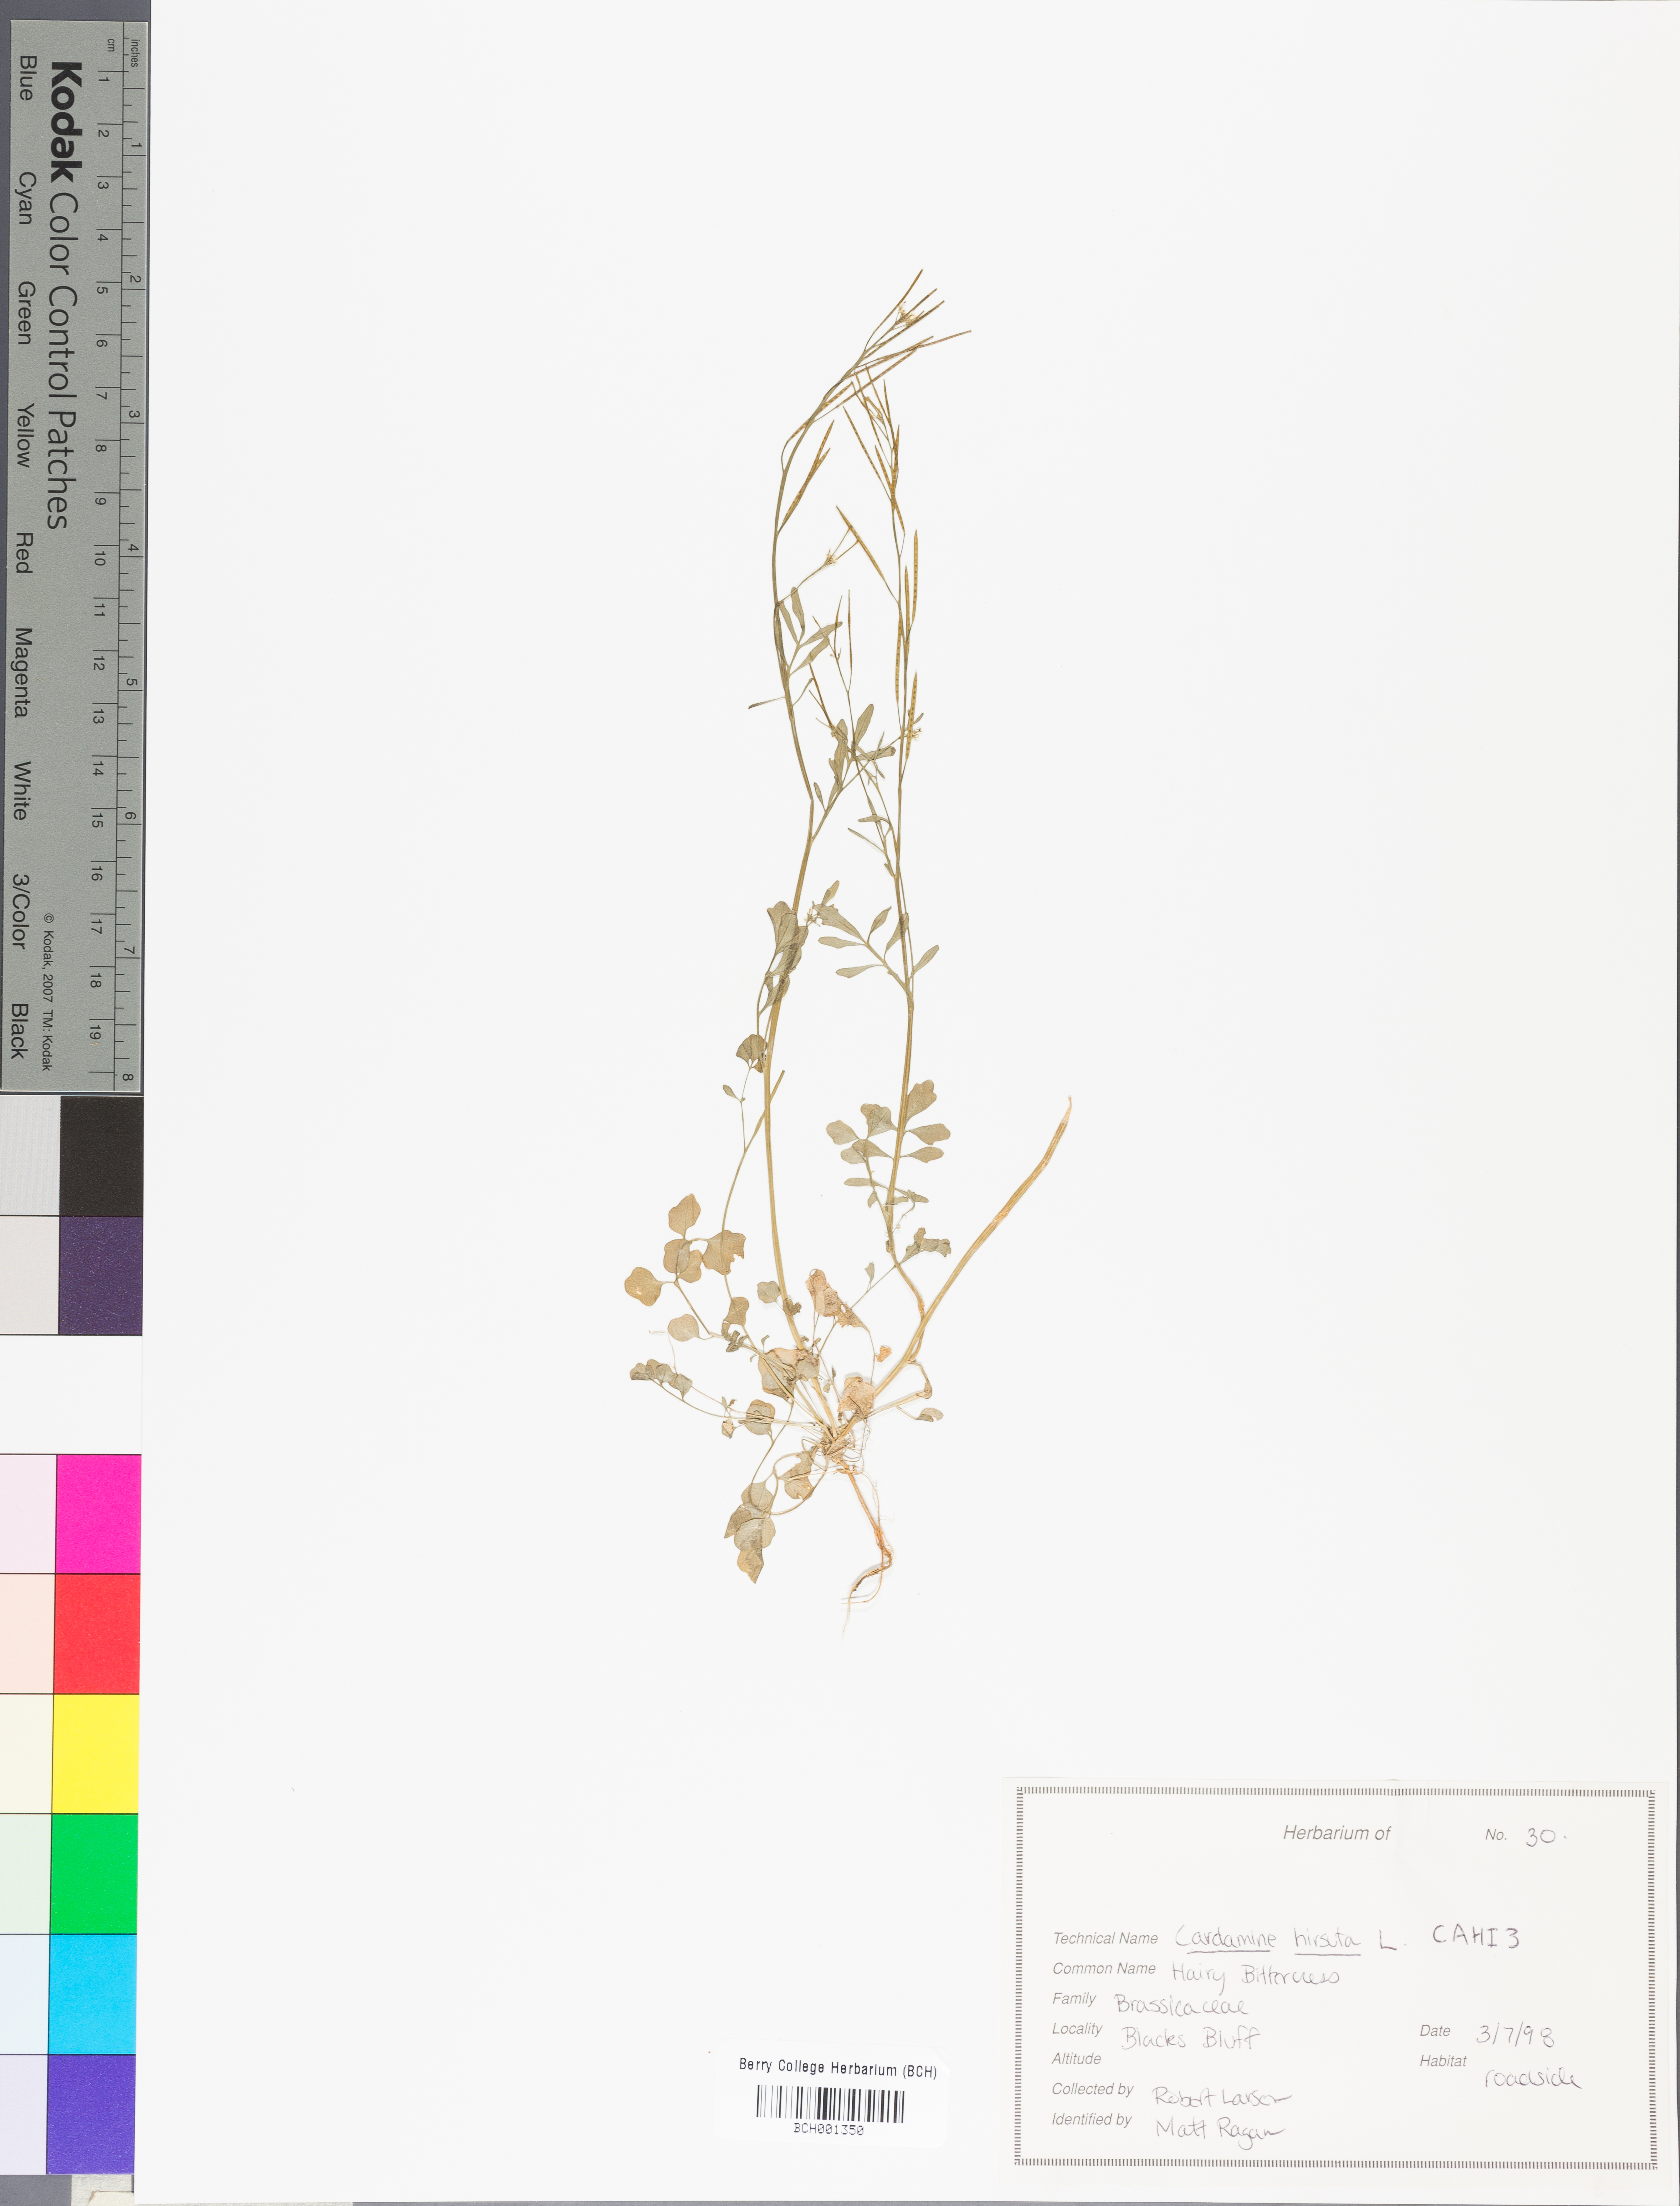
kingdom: Plantae
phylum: Tracheophyta
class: Magnoliopsida
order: Brassicales
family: Brassicaceae
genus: Cardamine
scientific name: Cardamine hirsuta
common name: Hairy bittercress
